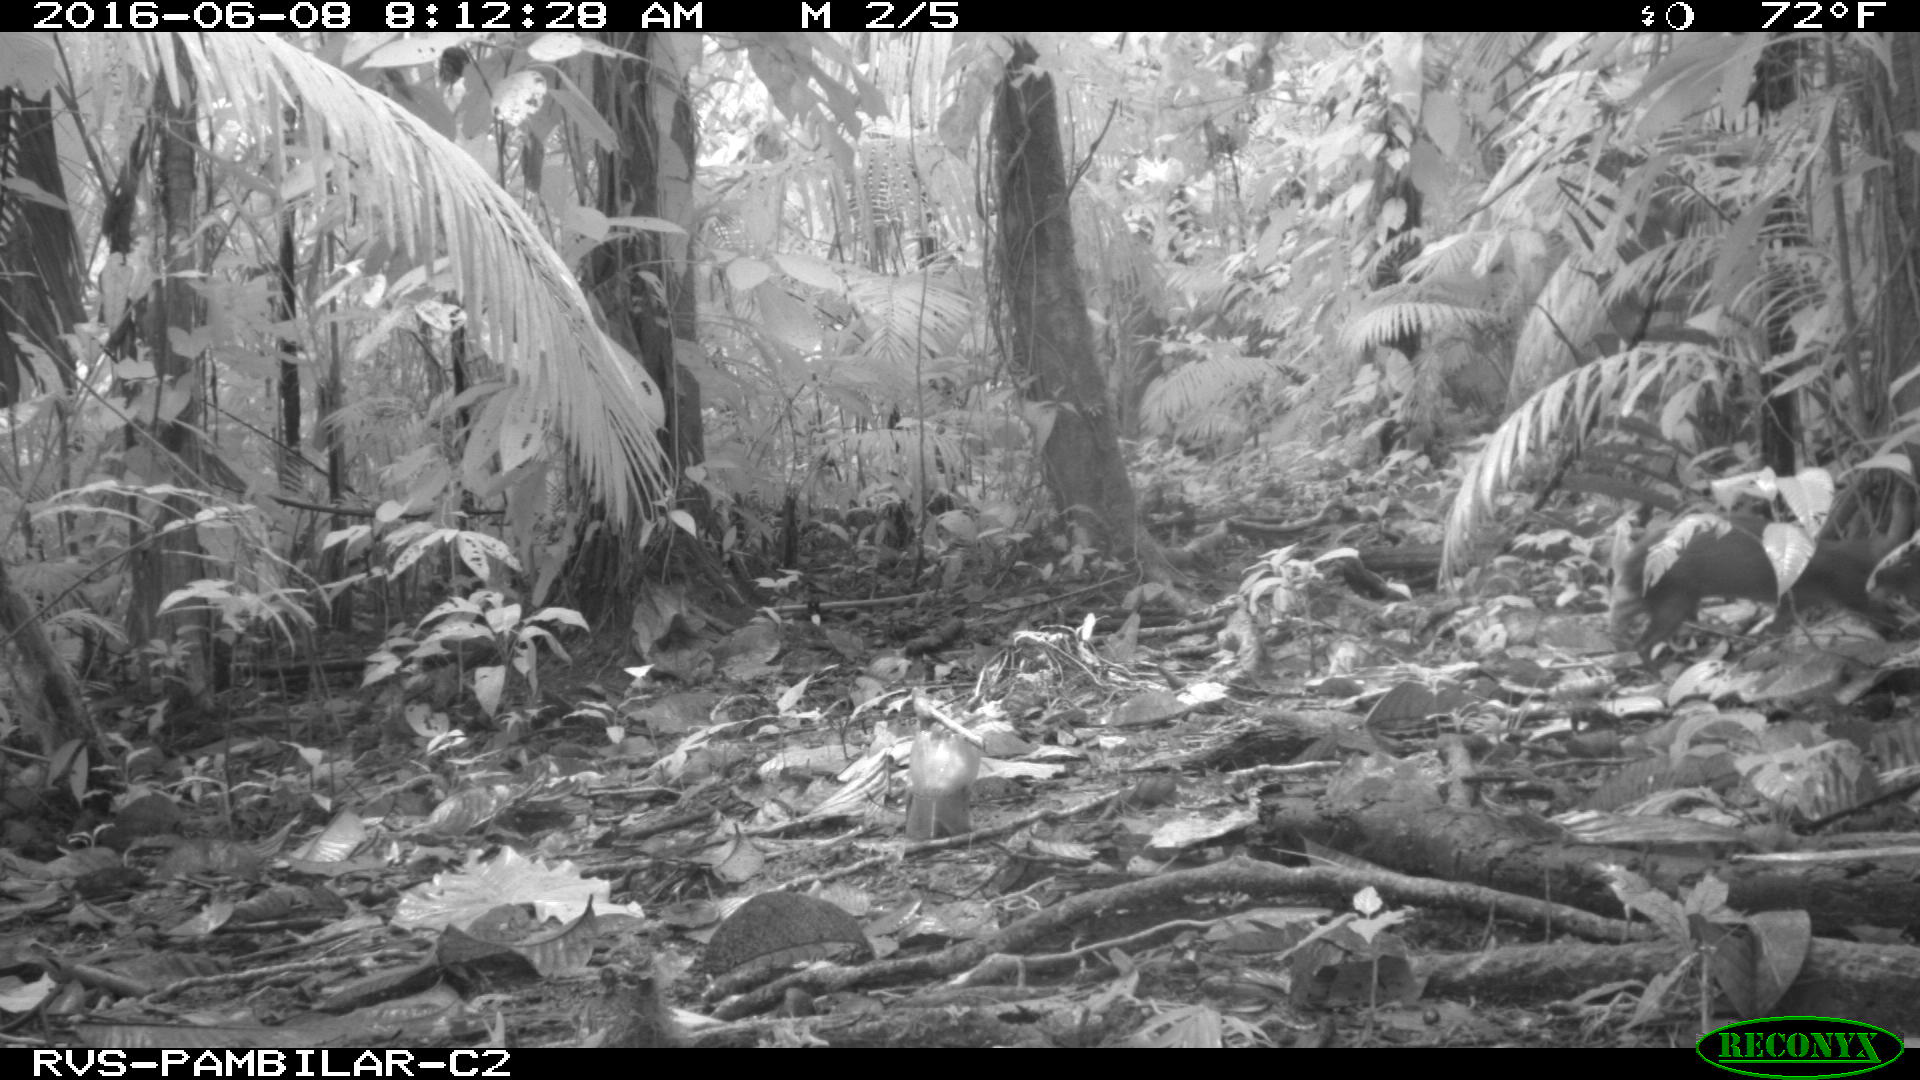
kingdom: Animalia
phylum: Chordata
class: Mammalia
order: Rodentia
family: Dasyproctidae
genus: Dasyprocta
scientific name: Dasyprocta punctata
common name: Central american agouti
